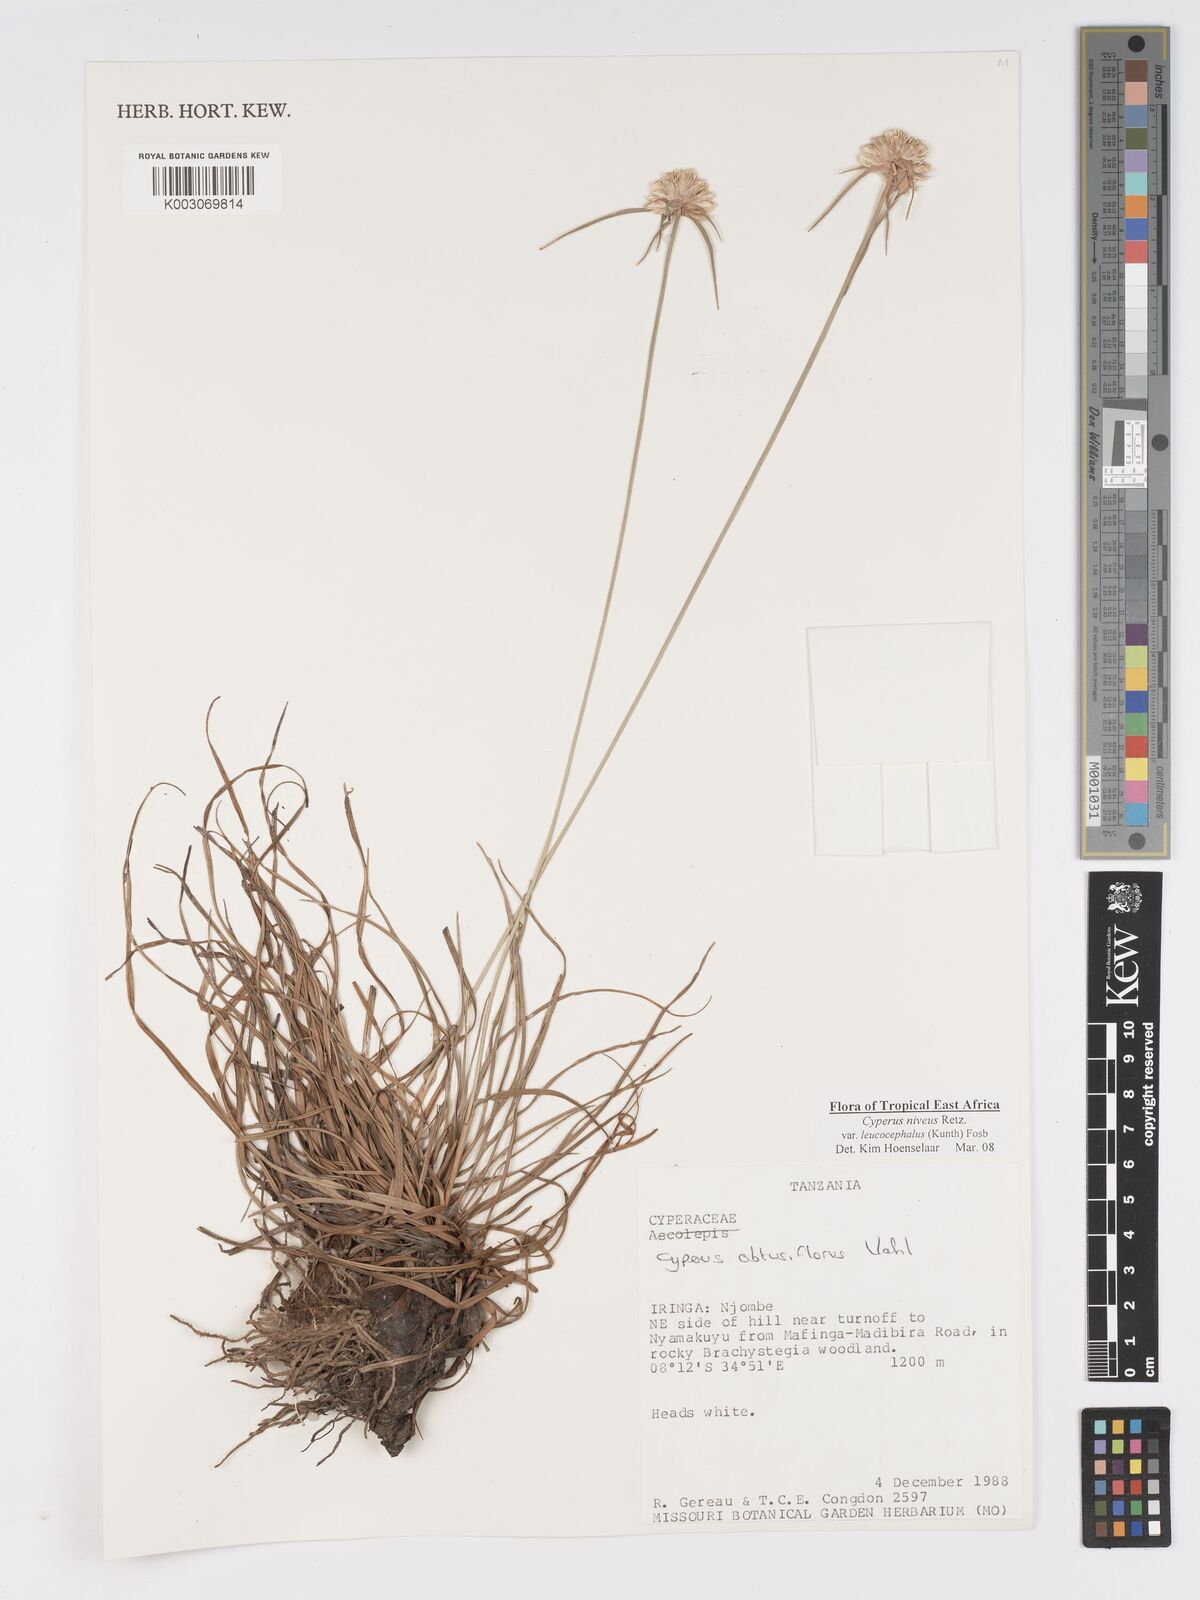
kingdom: Plantae
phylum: Tracheophyta
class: Liliopsida
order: Poales
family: Cyperaceae
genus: Cyperus
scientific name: Cyperus niveus
